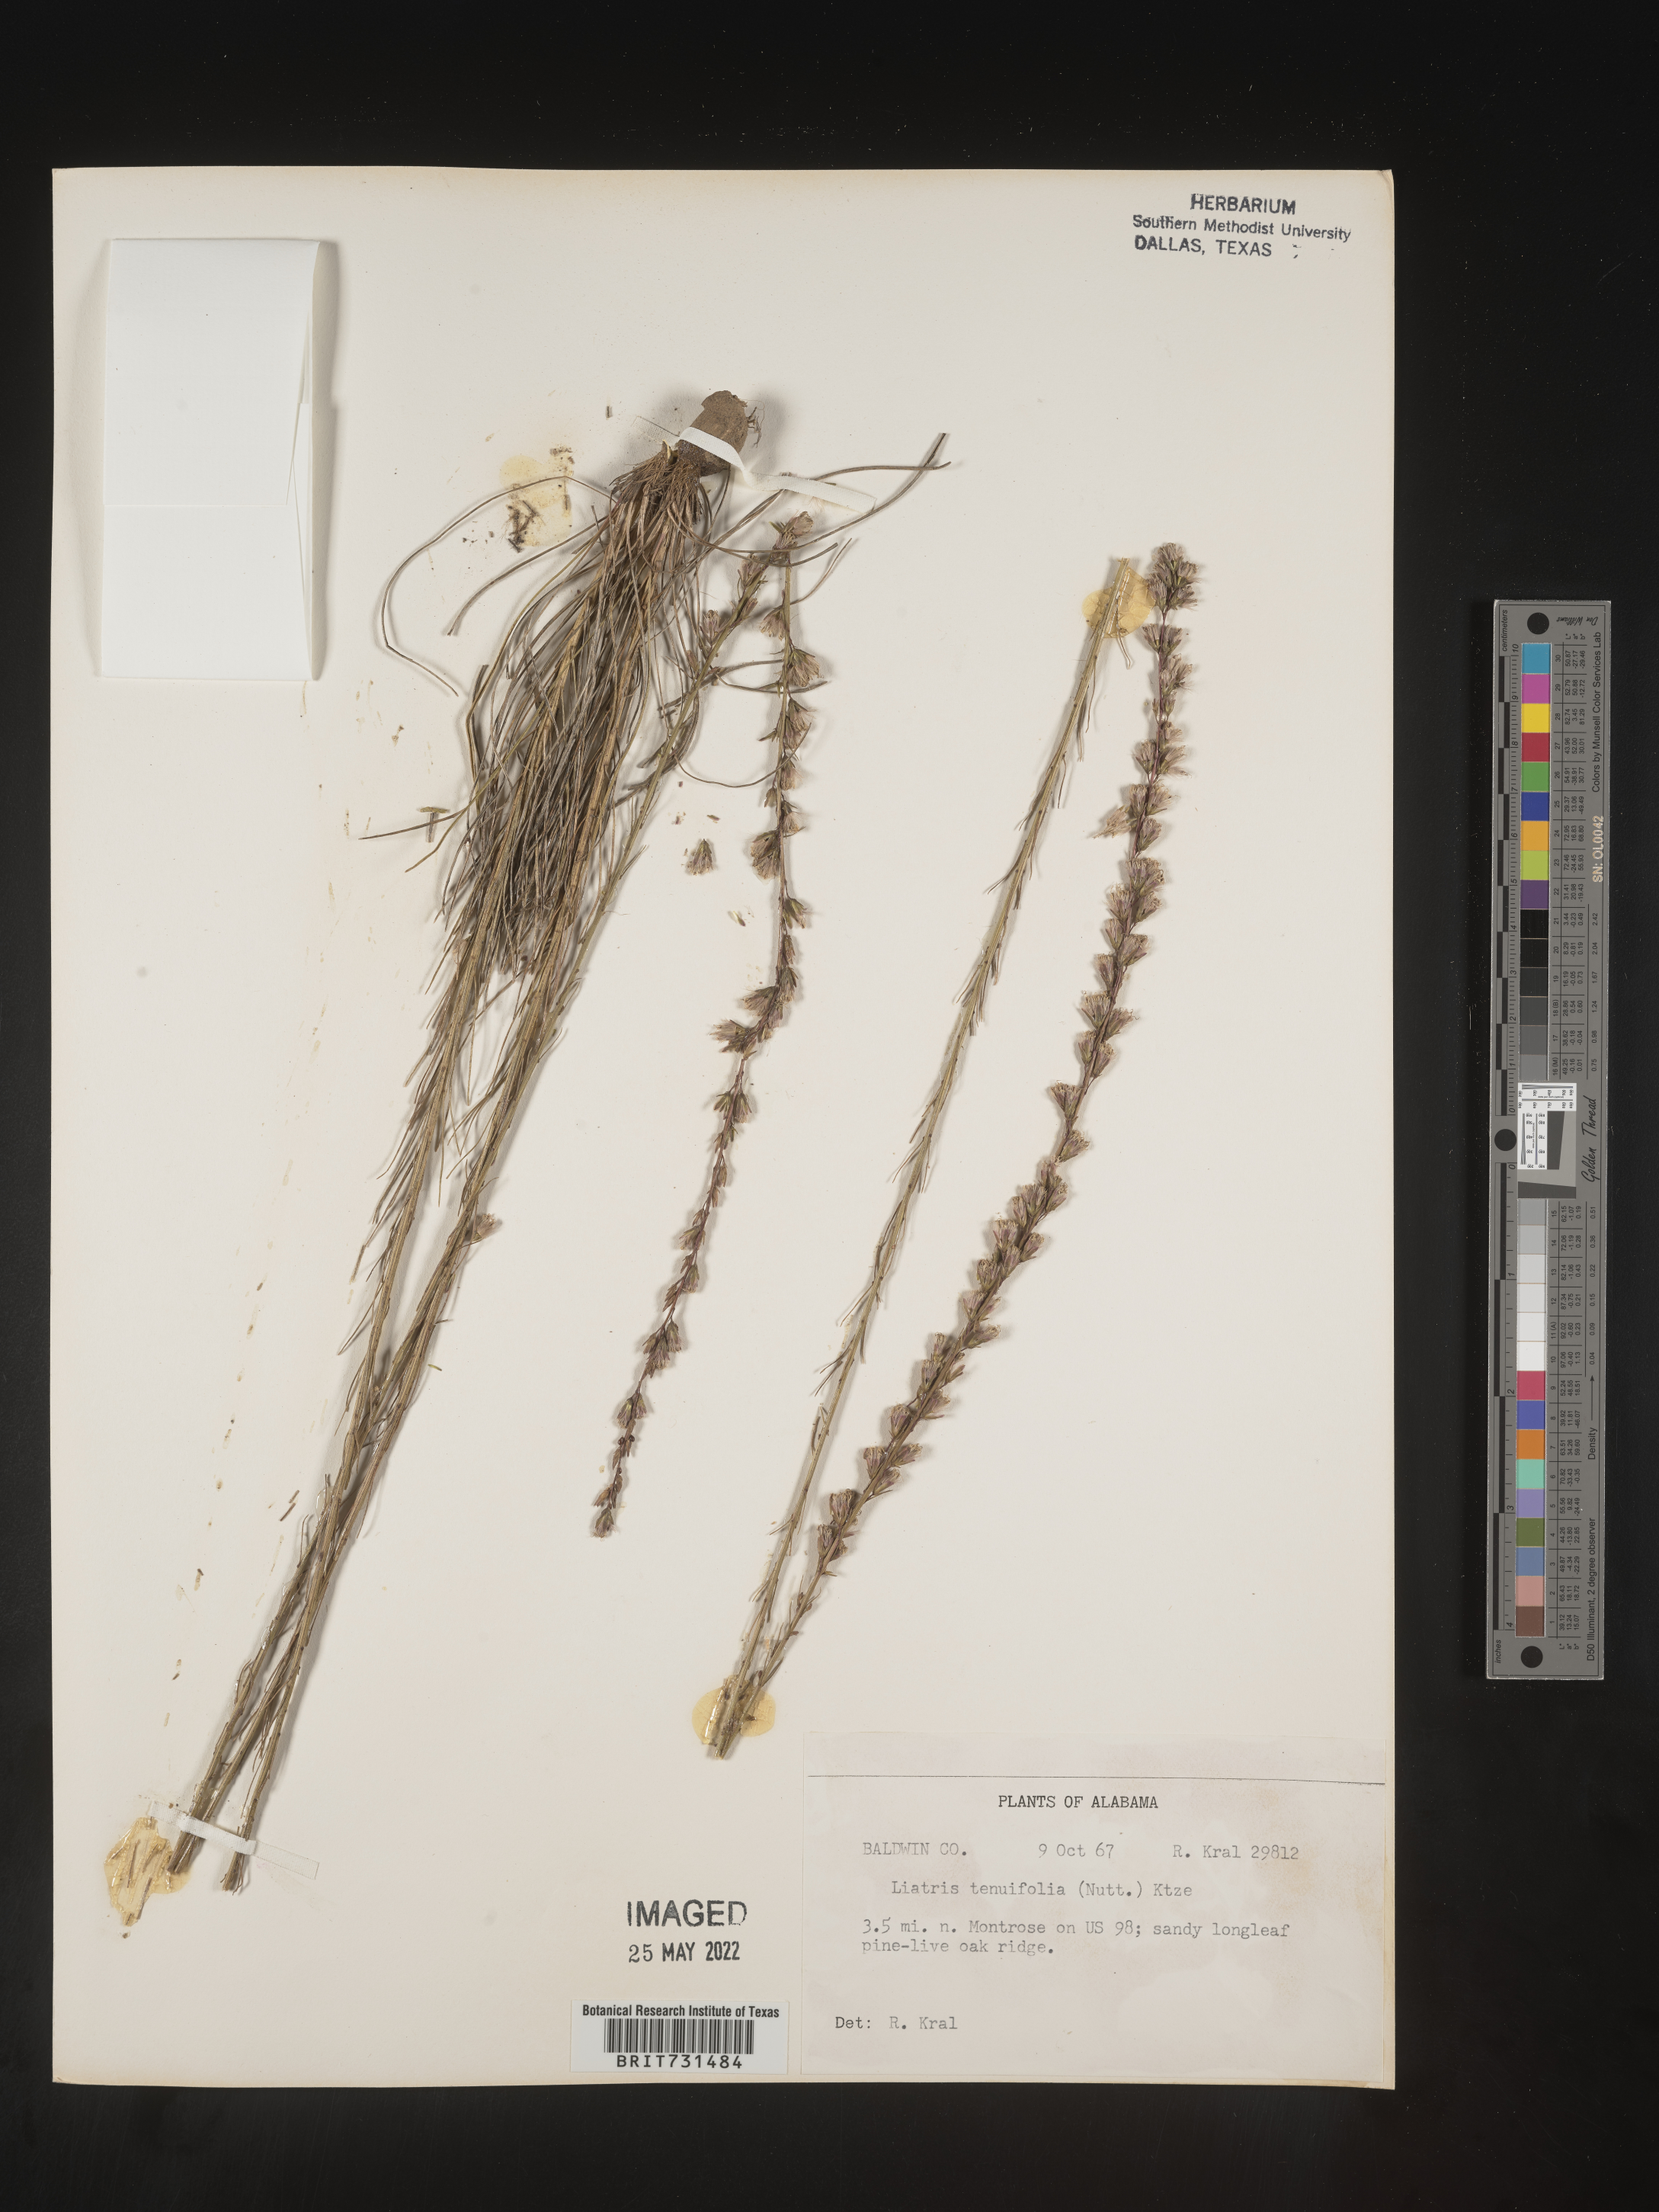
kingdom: Plantae
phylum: Tracheophyta
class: Magnoliopsida
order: Asterales
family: Asteraceae
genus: Liatris
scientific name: Liatris tenuifolia
